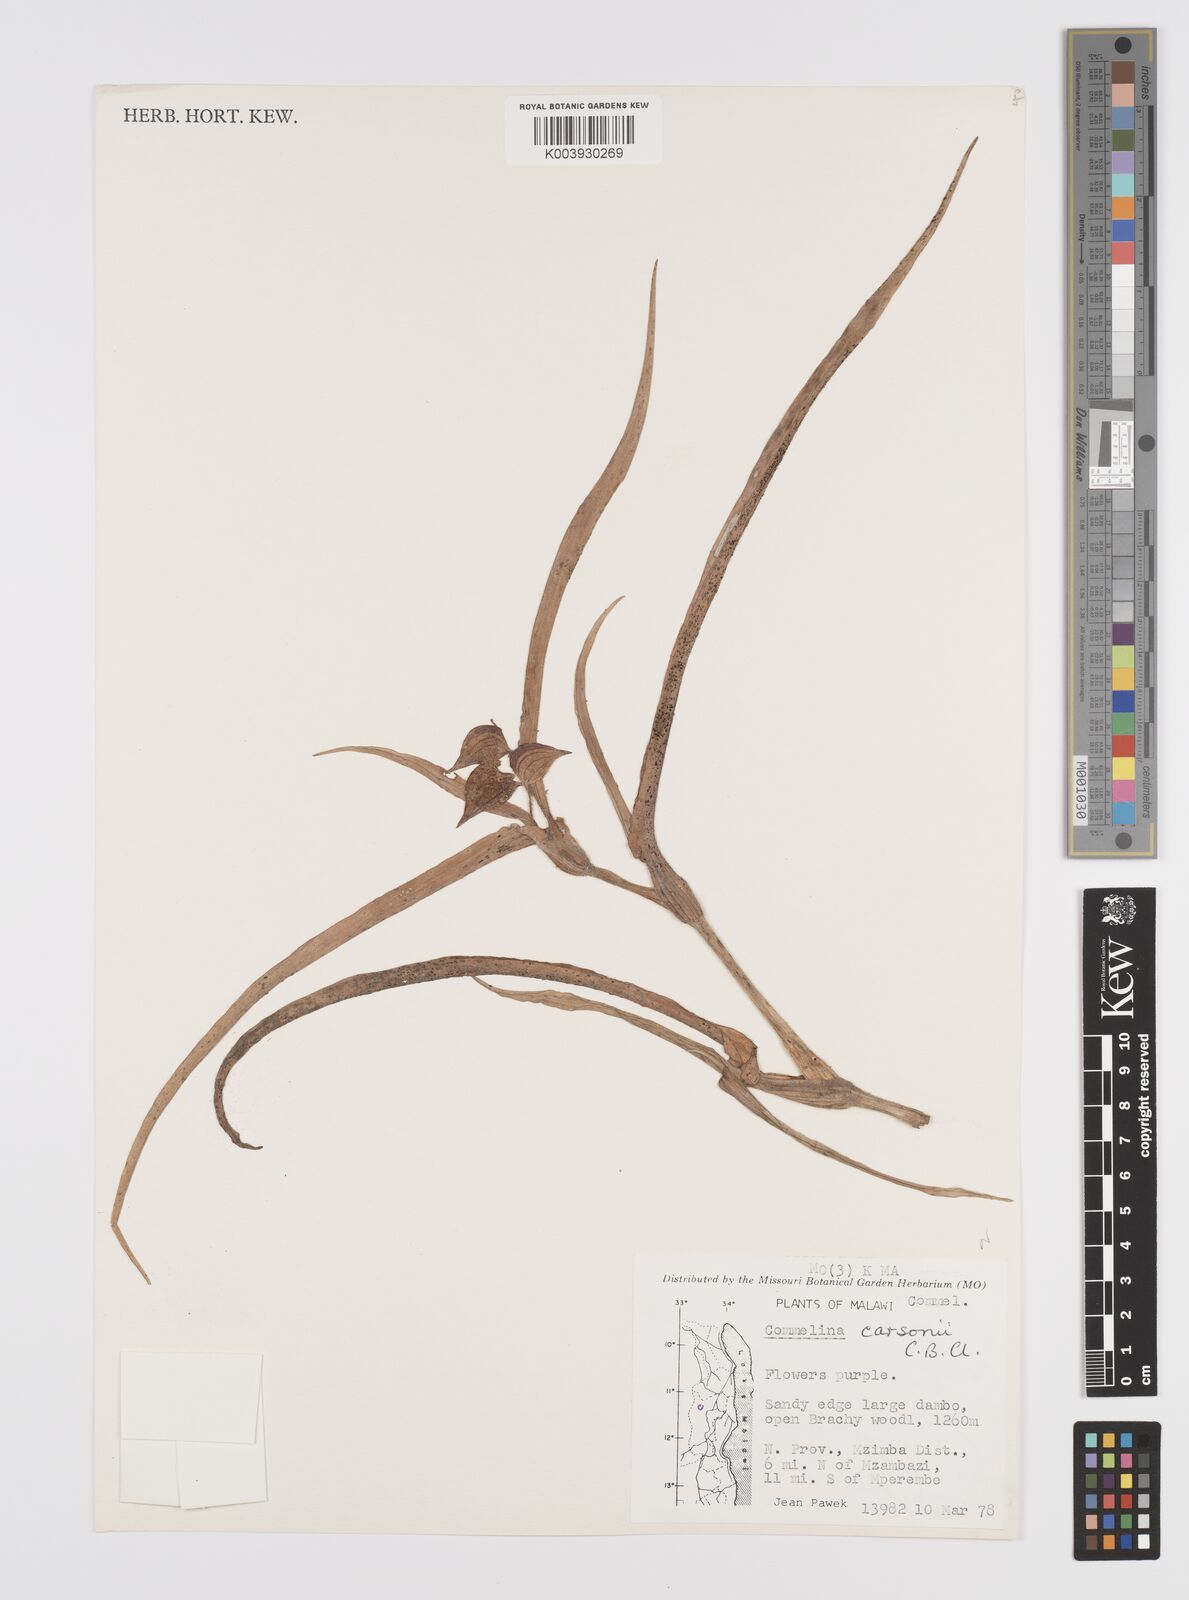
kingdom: Plantae
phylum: Tracheophyta
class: Liliopsida
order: Commelinales
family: Commelinaceae
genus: Commelina
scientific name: Commelina schweinfurthii
